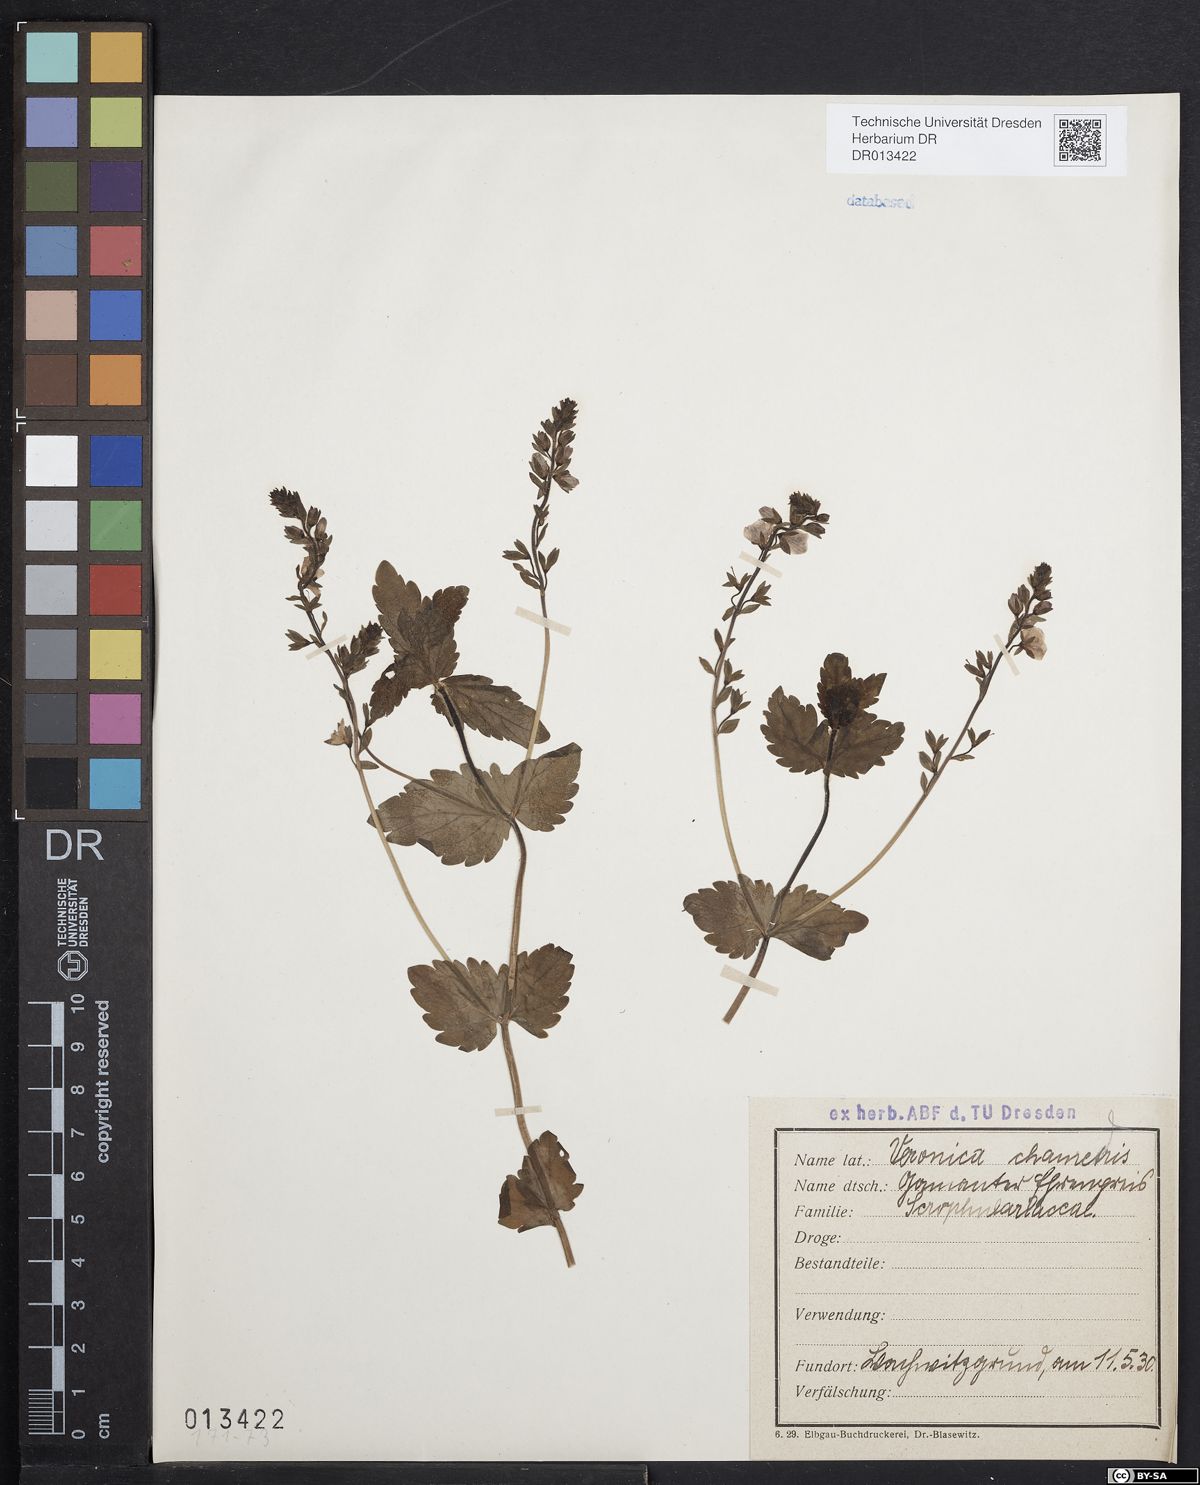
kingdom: Plantae
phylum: Tracheophyta
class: Magnoliopsida
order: Lamiales
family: Plantaginaceae
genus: Veronica
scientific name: Veronica chamaedrys
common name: Germander speedwell
